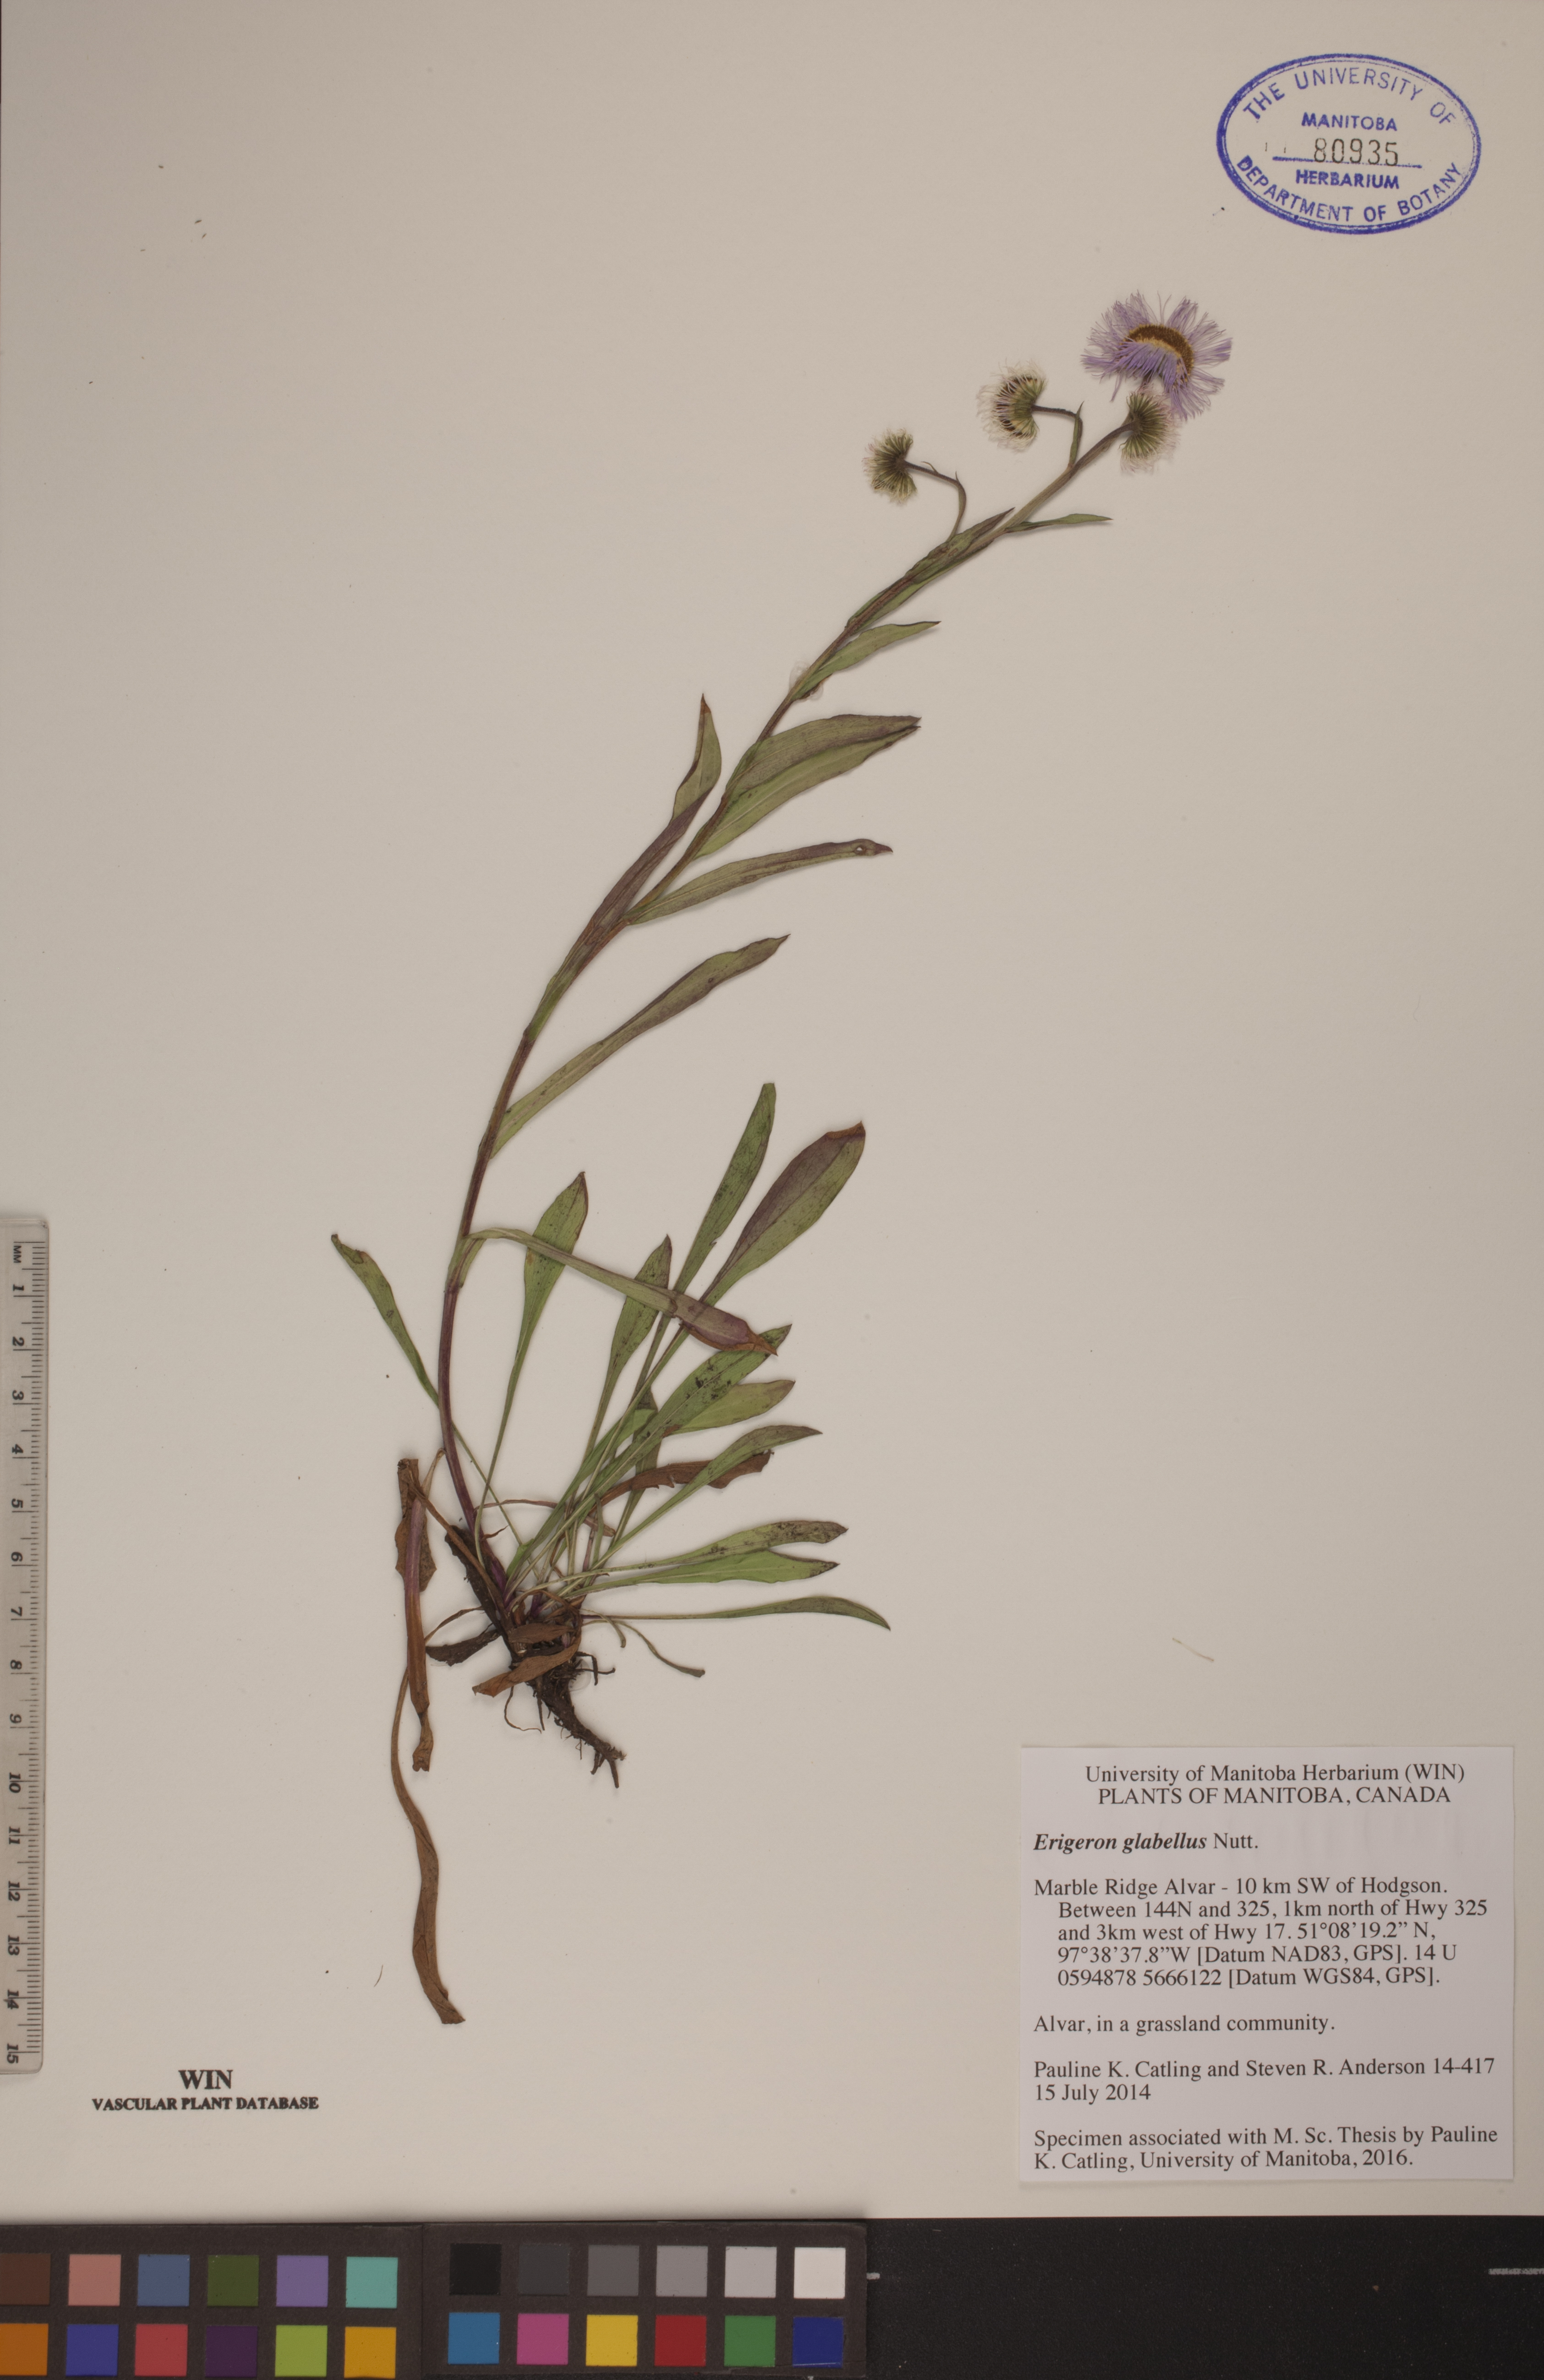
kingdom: Plantae
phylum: Tracheophyta
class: Magnoliopsida
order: Asterales
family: Asteraceae
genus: Erigeron
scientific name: Erigeron glabellus
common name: Smooth fleabane
